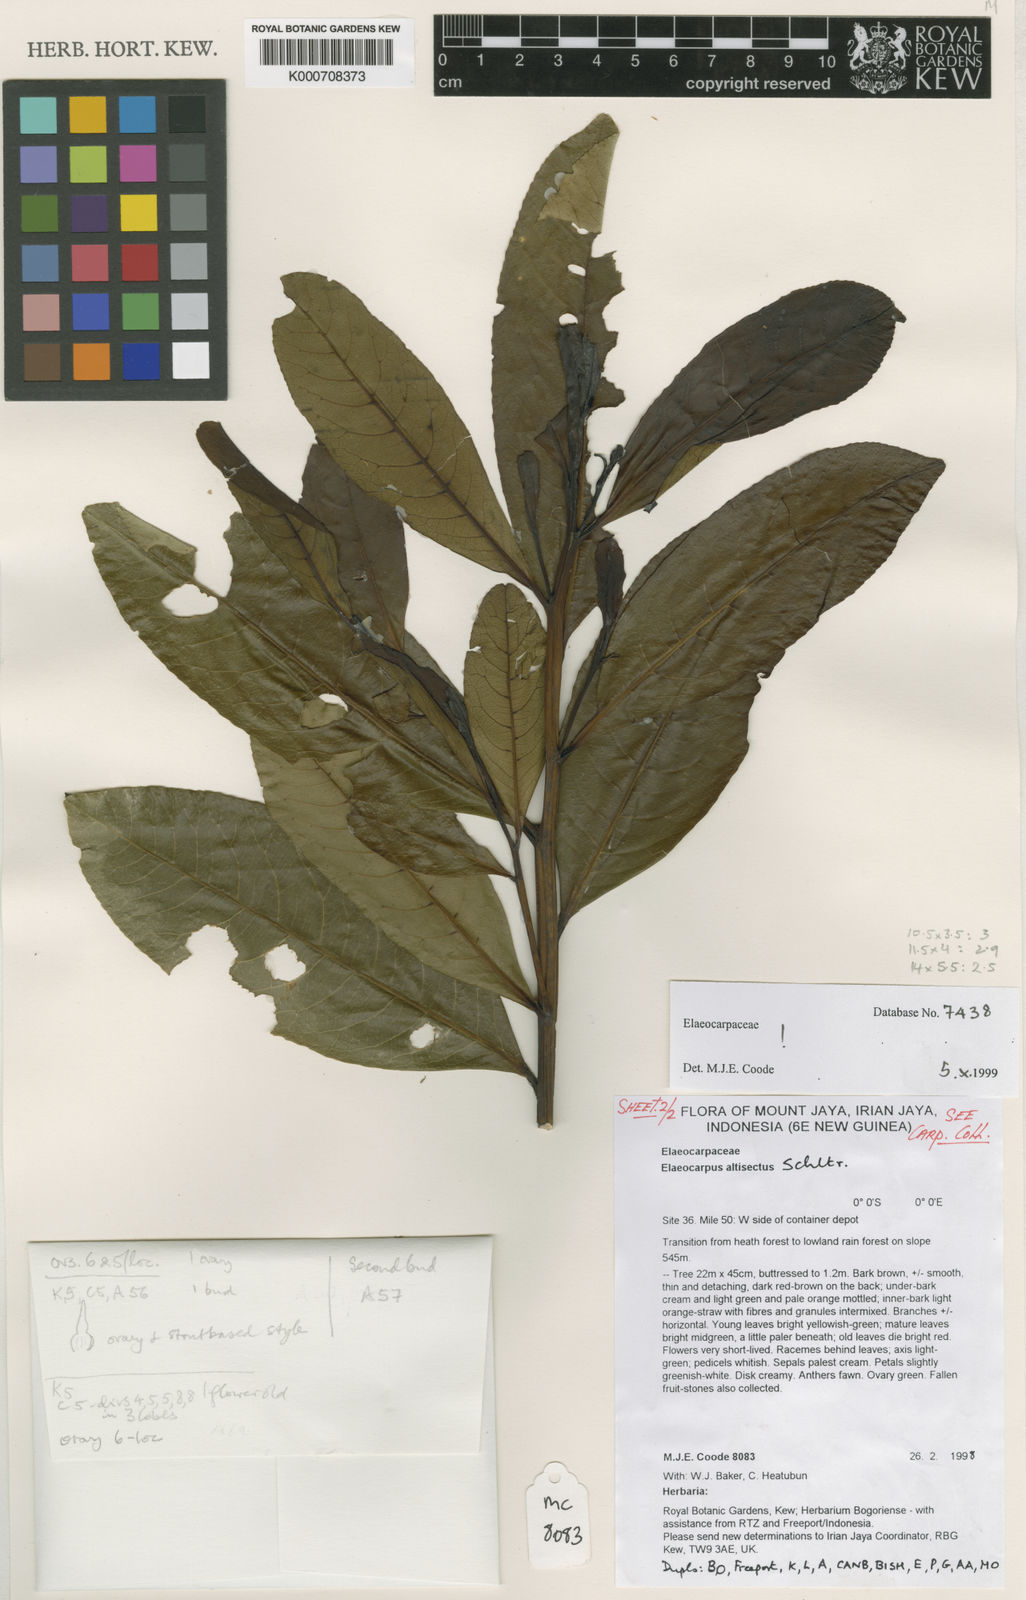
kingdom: Plantae
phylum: Tracheophyta
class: Magnoliopsida
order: Oxalidales
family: Elaeocarpaceae
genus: Elaeocarpus
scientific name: Elaeocarpus ornatus
